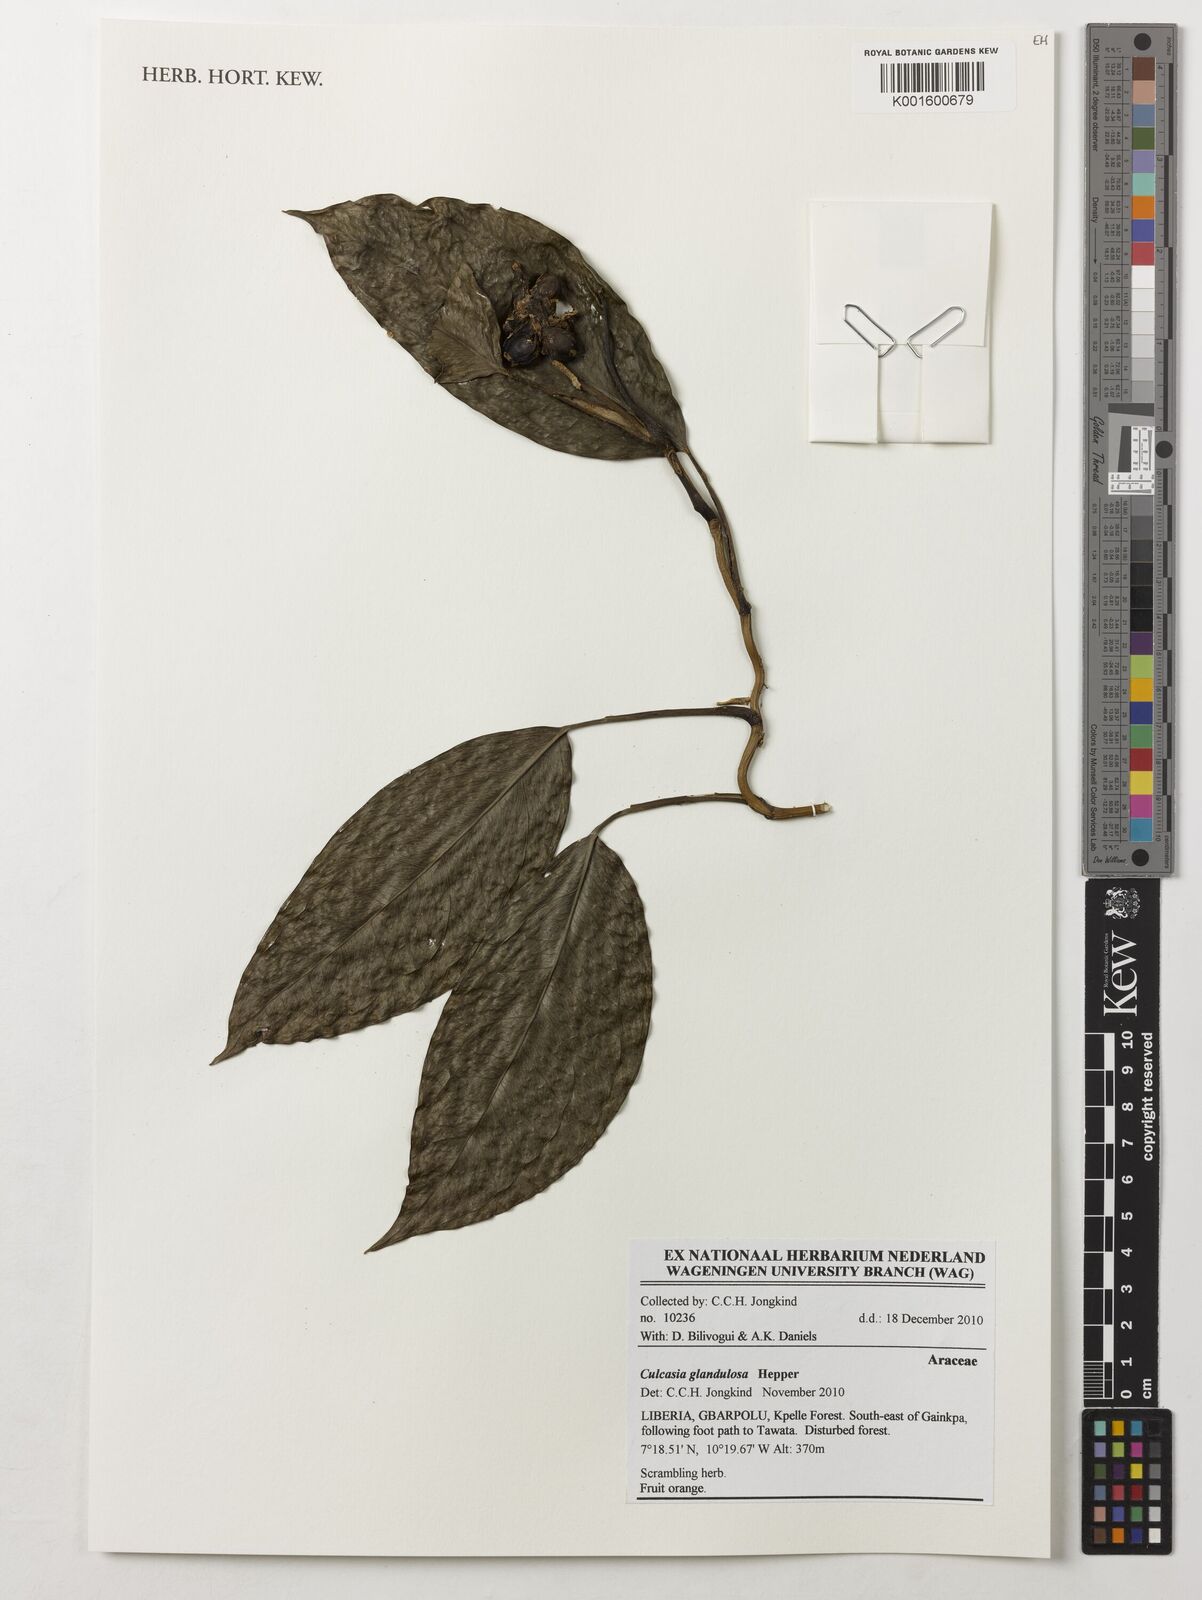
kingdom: Plantae
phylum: Tracheophyta
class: Liliopsida
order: Alismatales
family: Araceae
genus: Culcasia
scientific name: Culcasia glandulosa
